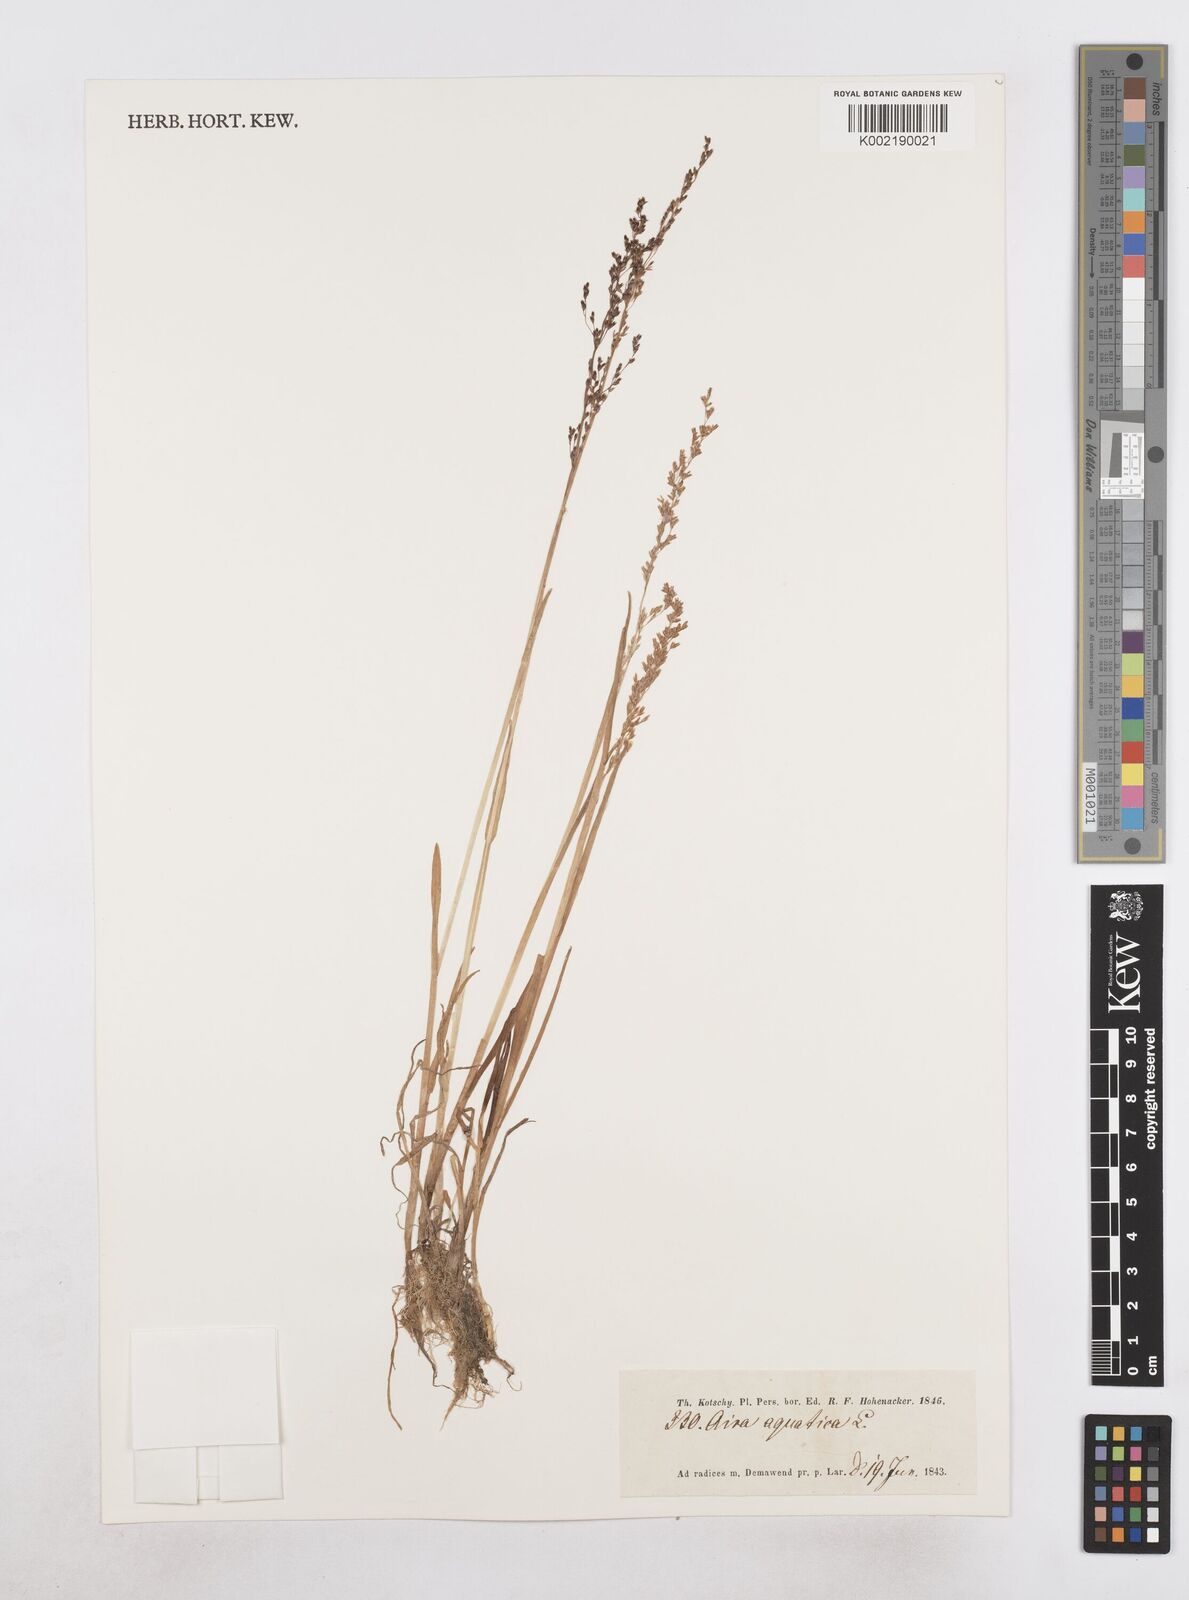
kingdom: Plantae
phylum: Tracheophyta
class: Liliopsida
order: Poales
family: Poaceae
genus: Catabrosa
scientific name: Catabrosa aquatica
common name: Whorl-grass
